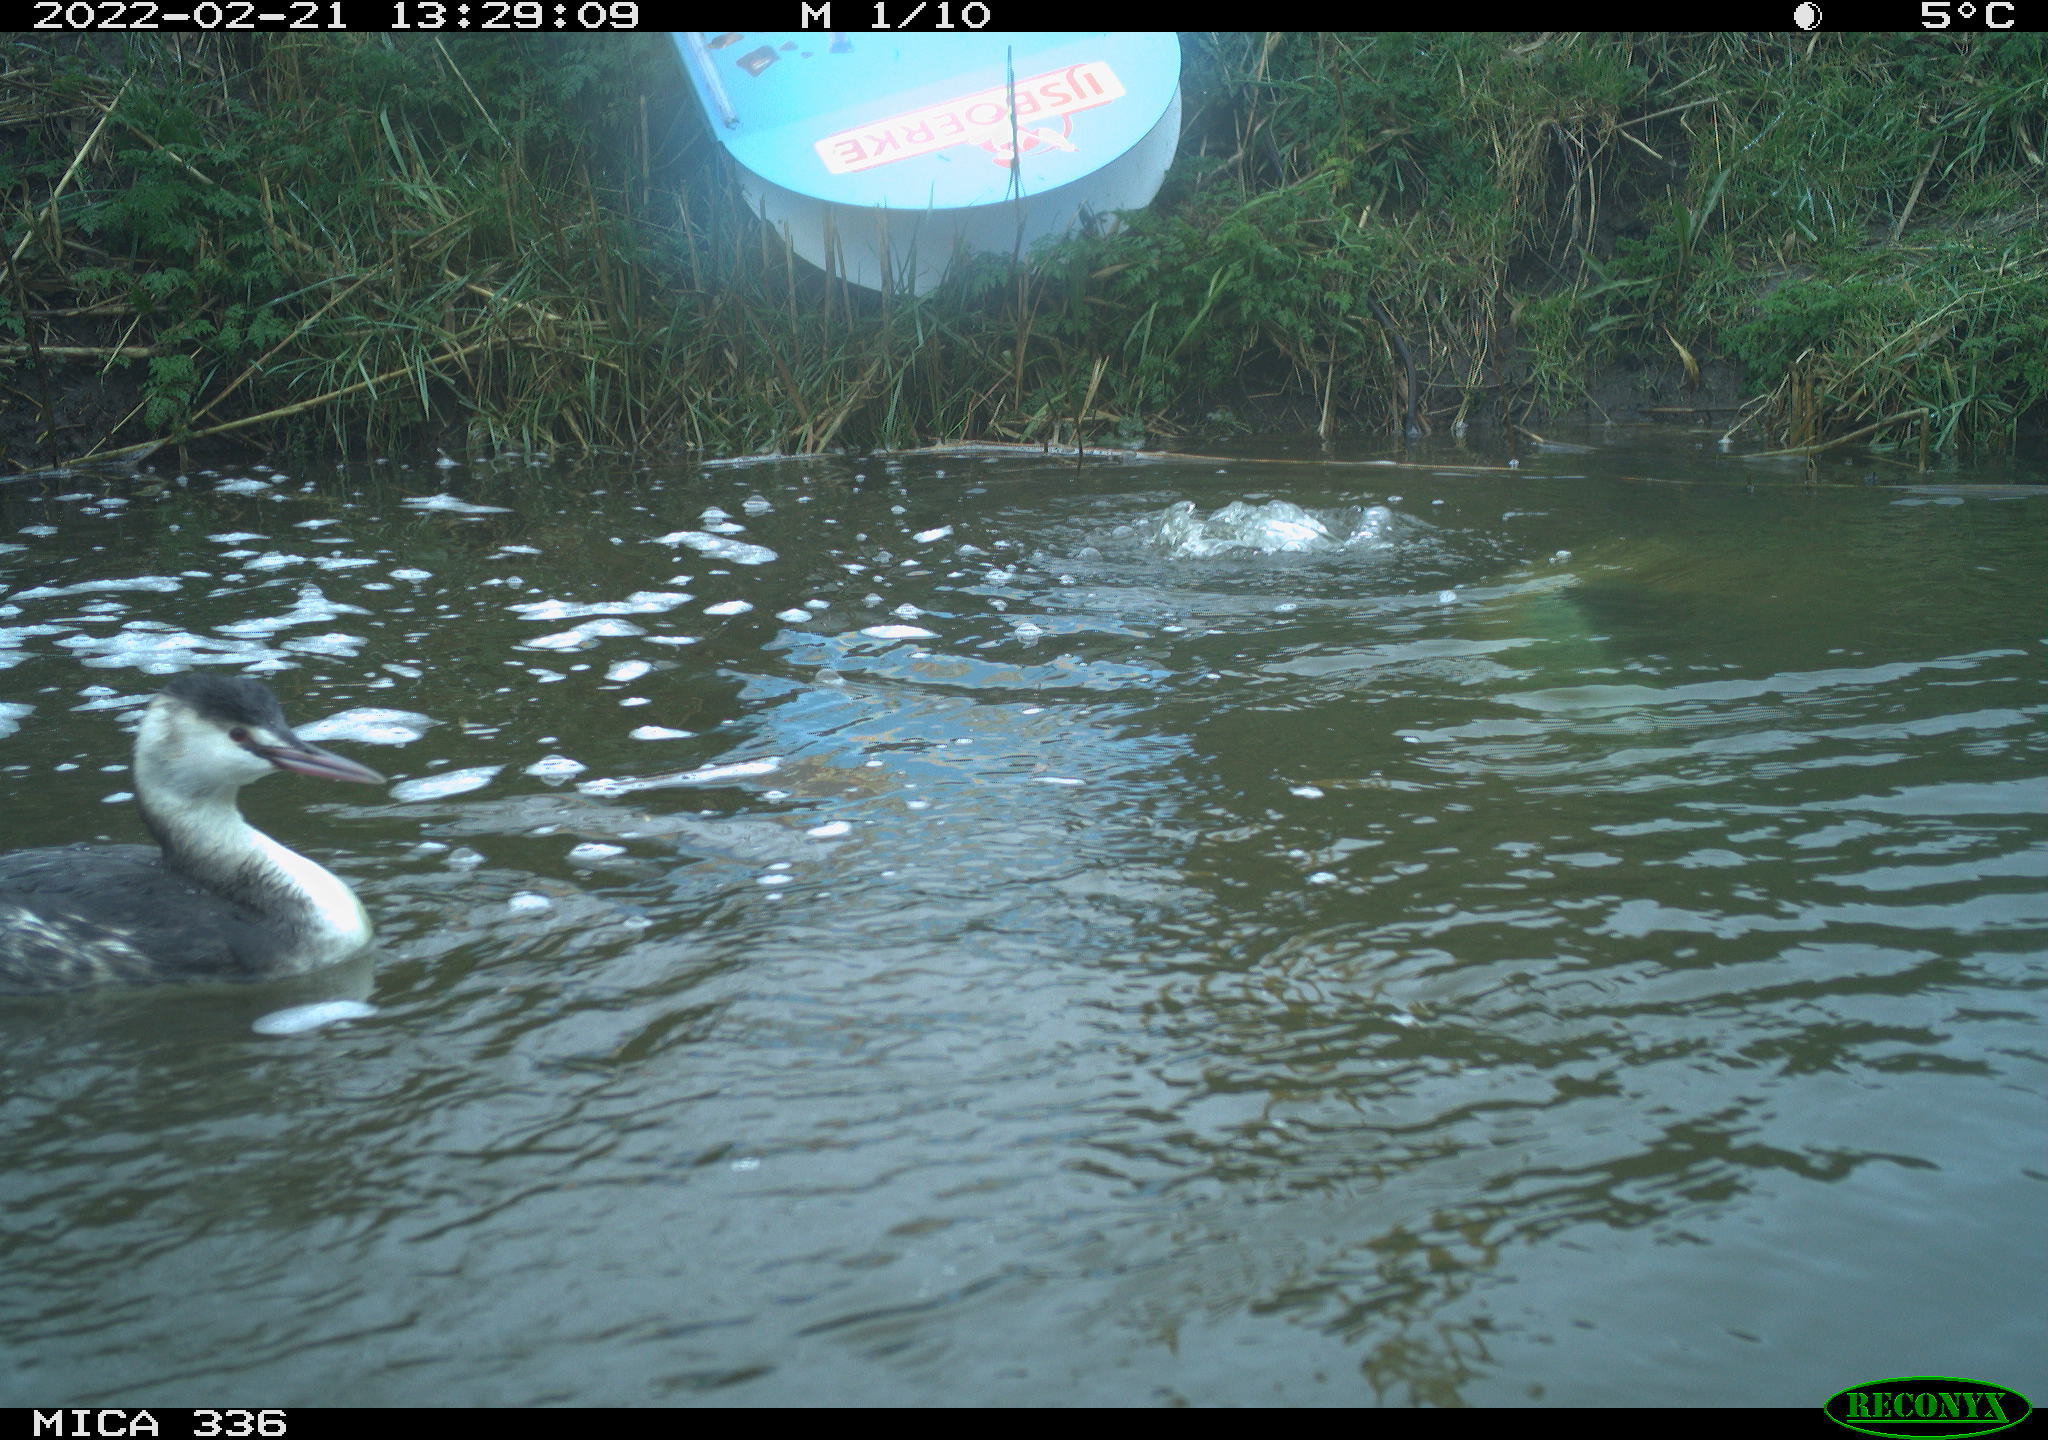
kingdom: Animalia
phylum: Chordata
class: Aves
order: Podicipediformes
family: Podicipedidae
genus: Podiceps
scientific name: Podiceps cristatus
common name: Great crested grebe
